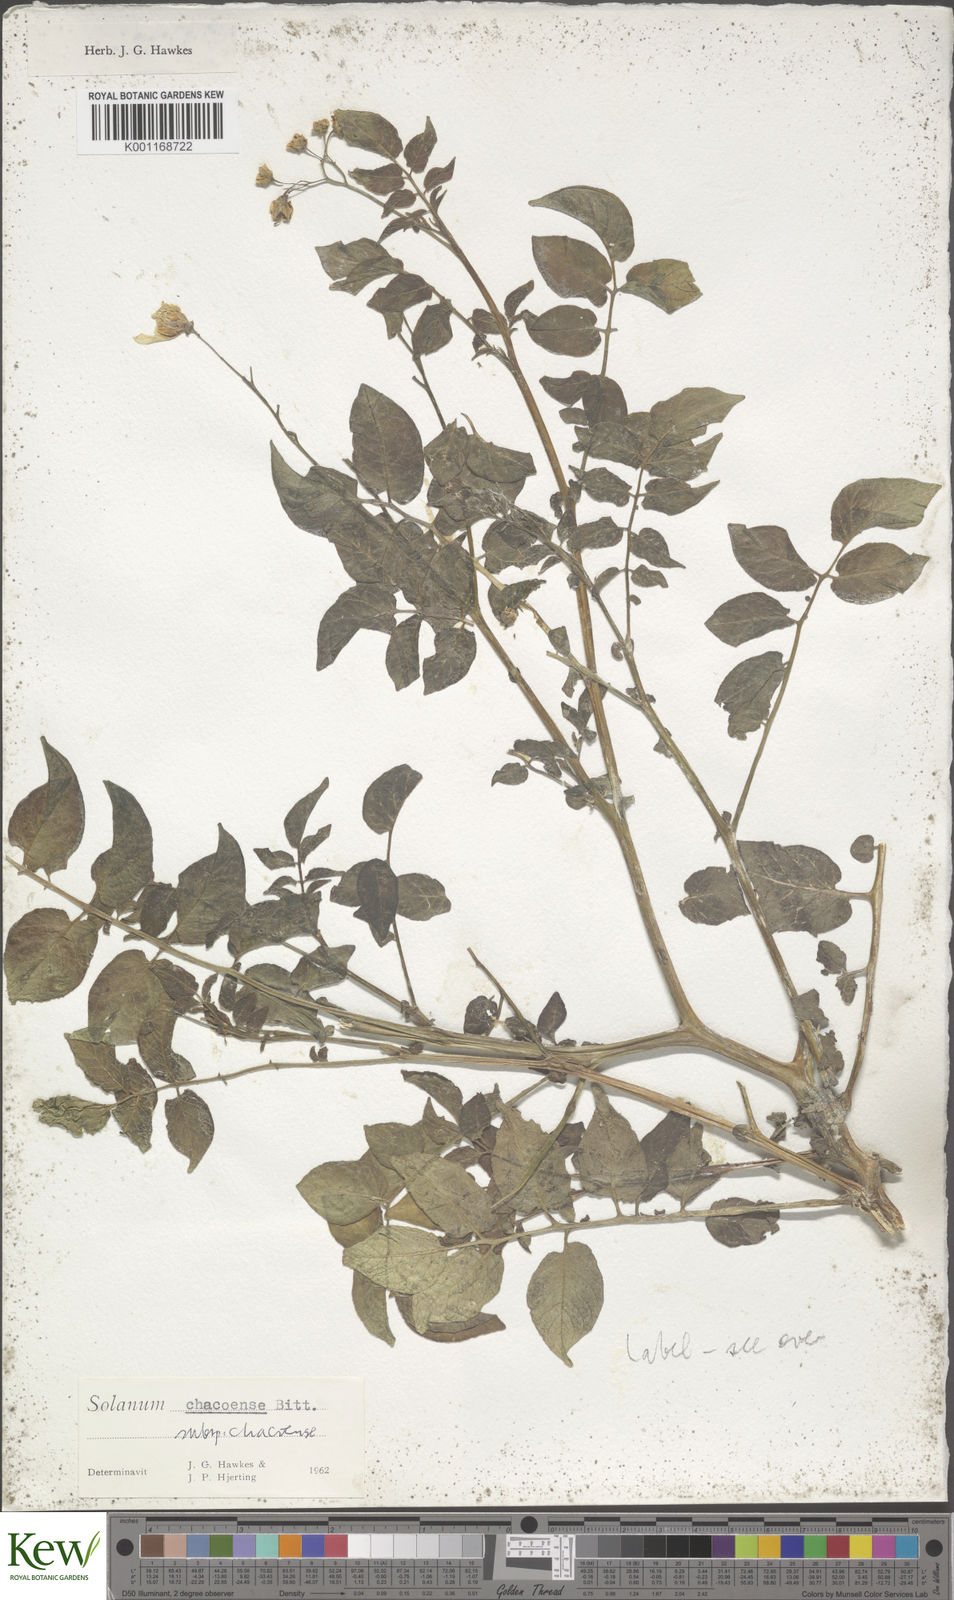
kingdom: Plantae
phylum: Tracheophyta
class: Magnoliopsida
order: Solanales
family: Solanaceae
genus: Solanum
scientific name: Solanum chacoense
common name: Chaco potato
